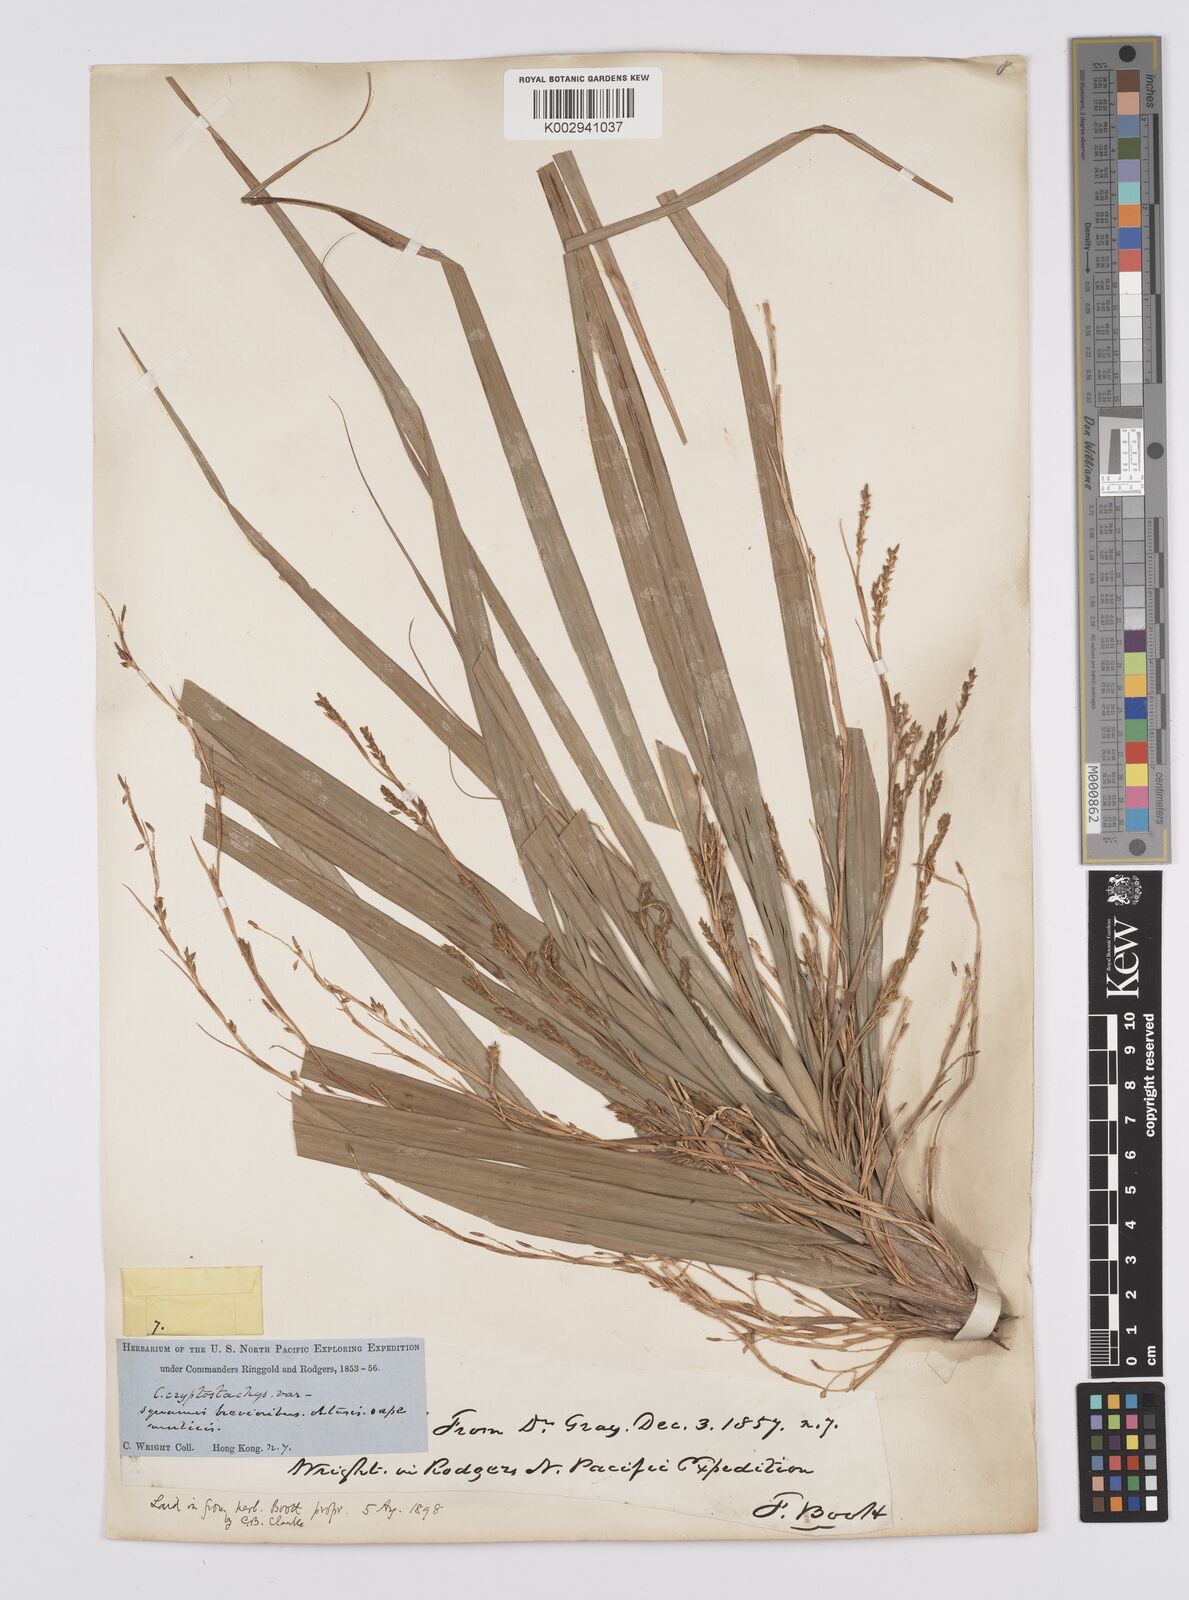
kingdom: Plantae
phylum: Tracheophyta
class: Liliopsida
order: Poales
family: Cyperaceae
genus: Carex
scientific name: Carex cryptostachys
